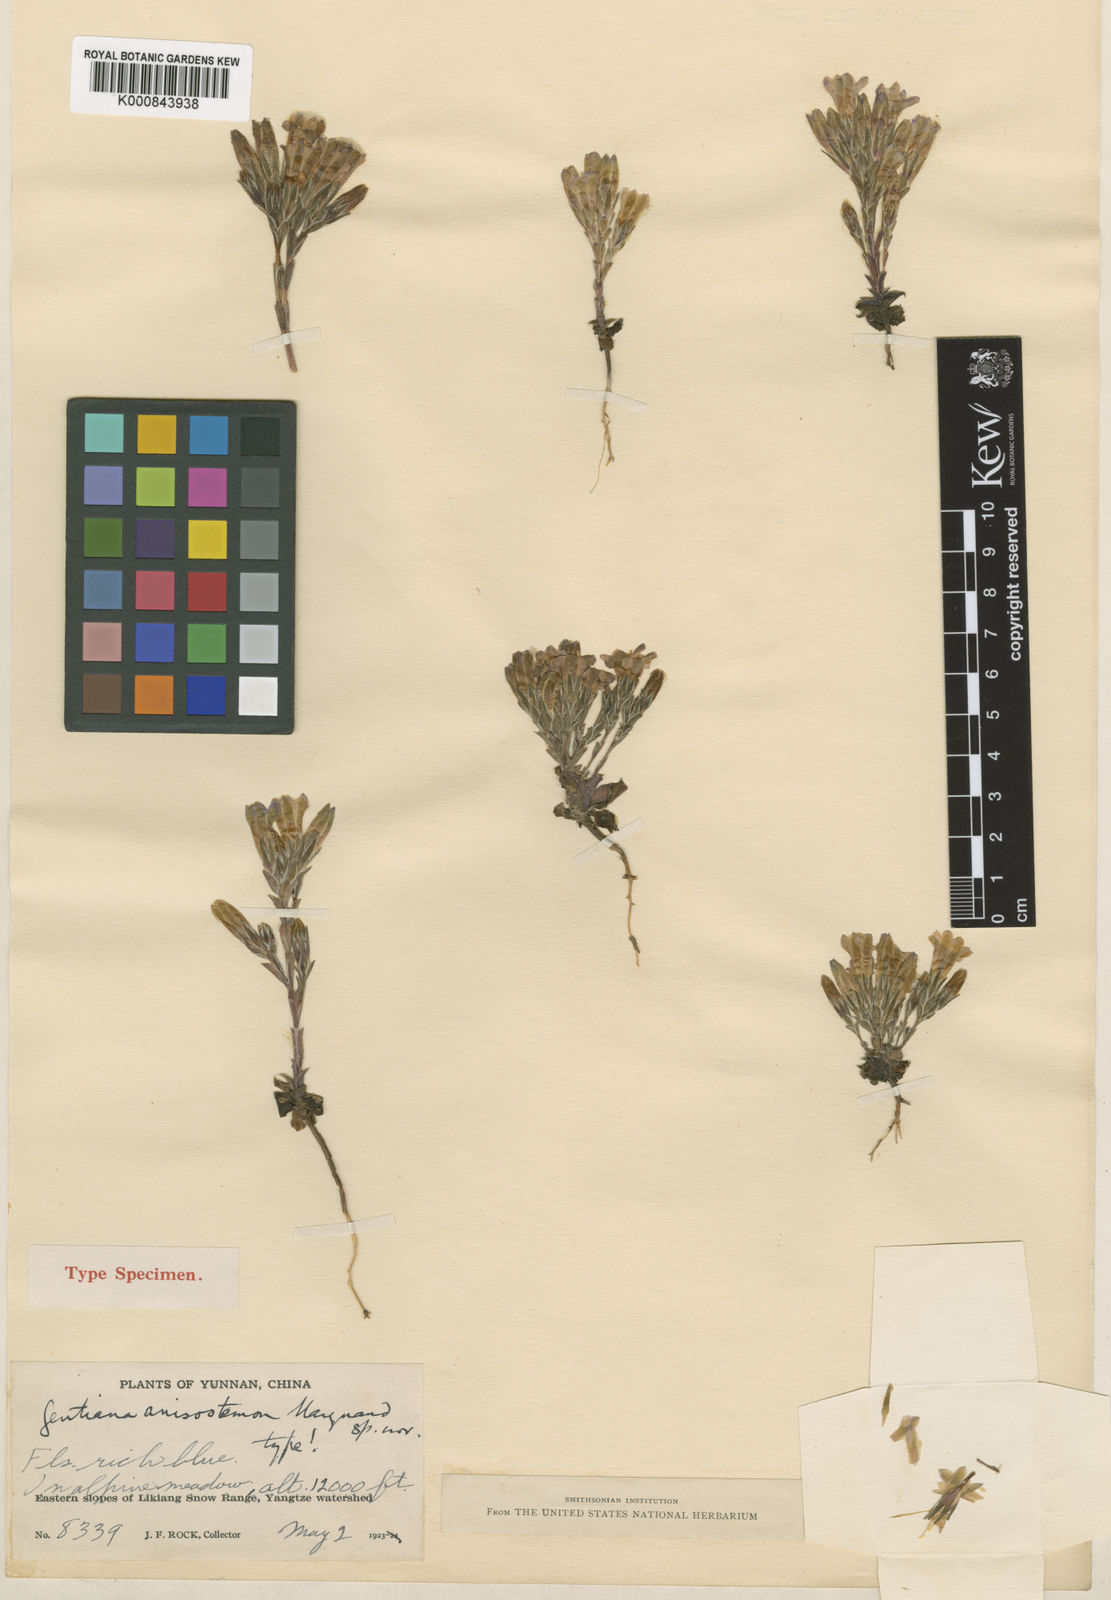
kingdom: Plantae
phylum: Tracheophyta
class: Magnoliopsida
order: Gentianales
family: Gentianaceae
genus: Gentiana
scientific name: Gentiana anisostemon
